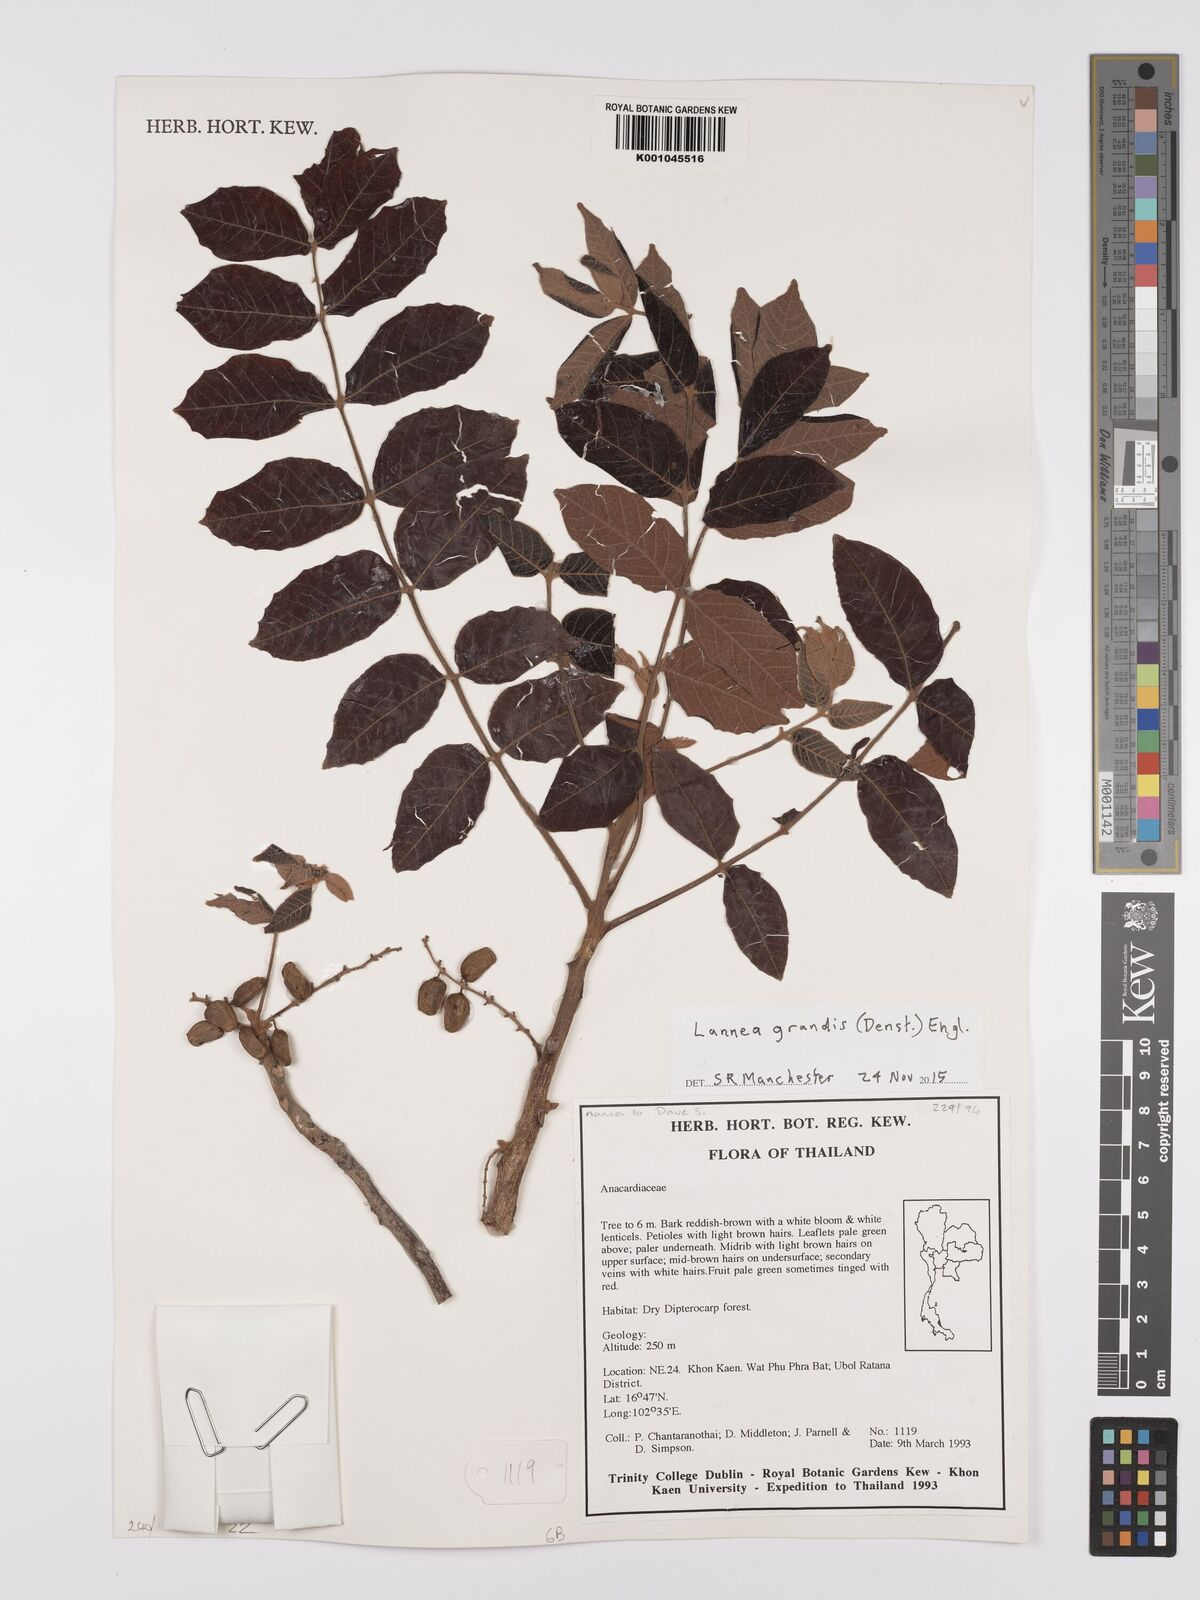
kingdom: Plantae
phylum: Tracheophyta
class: Magnoliopsida
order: Sapindales
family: Anacardiaceae
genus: Lannea
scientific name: Lannea coromandelica
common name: Indian ash tree
